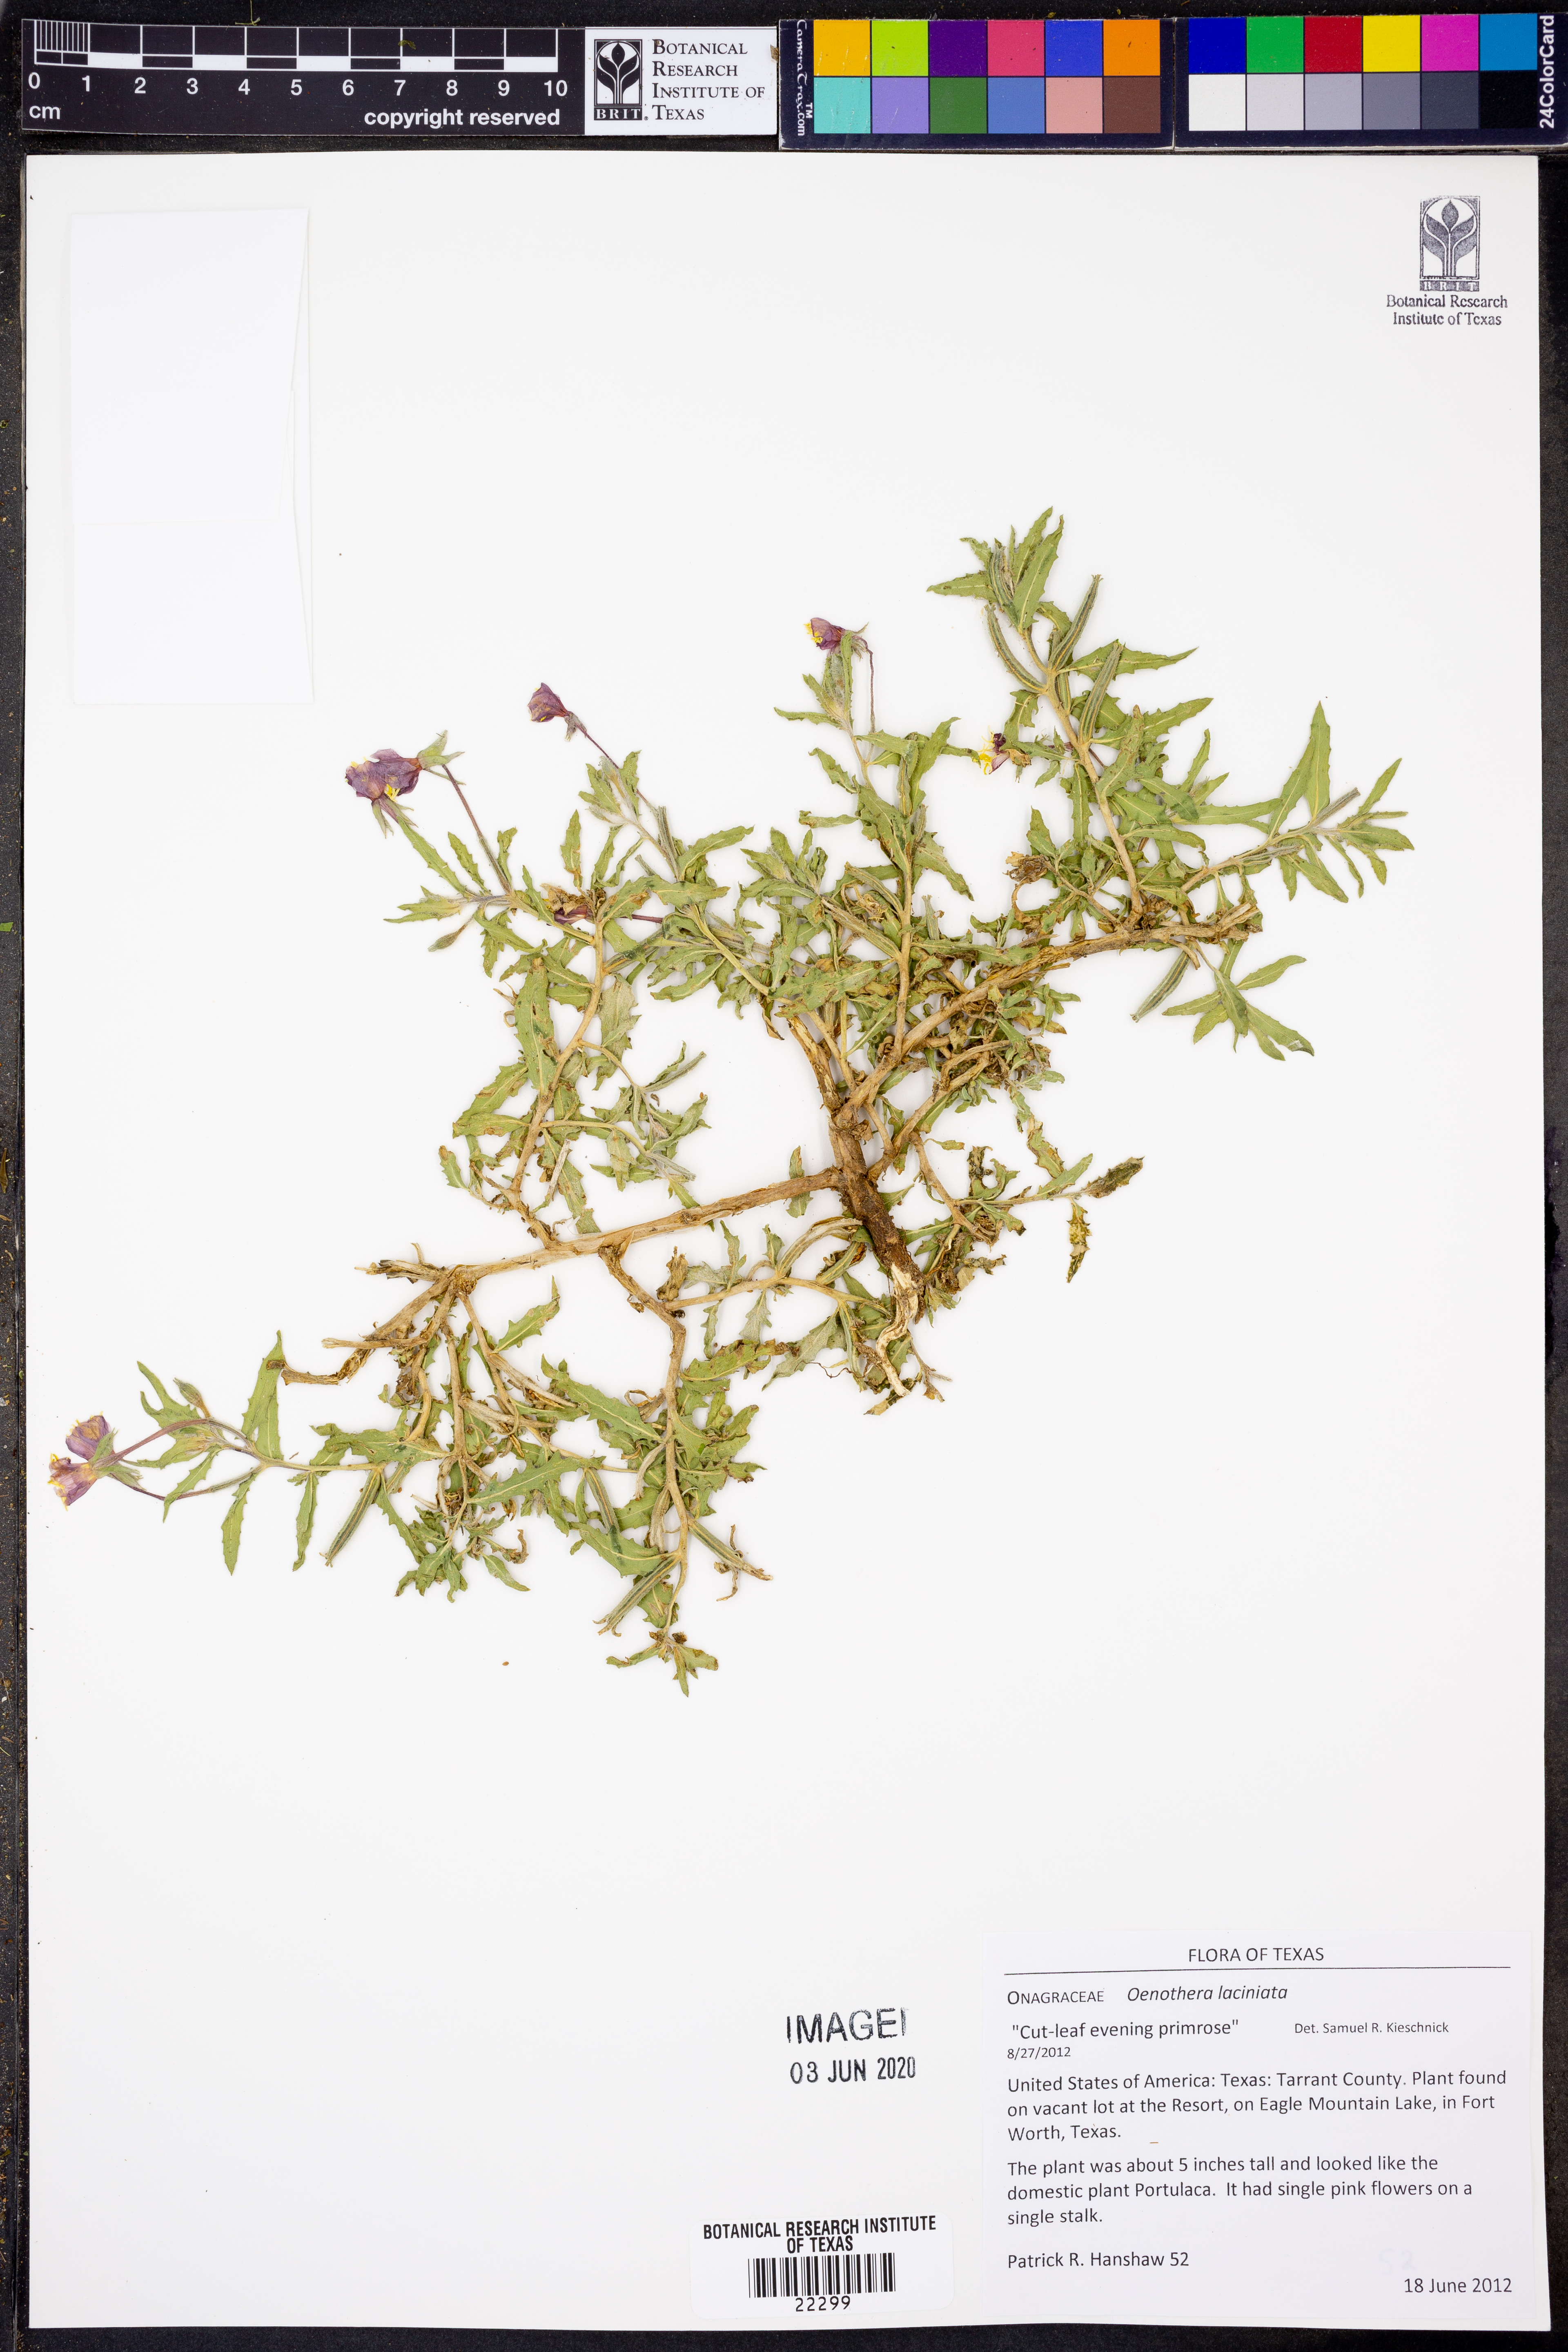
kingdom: Plantae
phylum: Tracheophyta
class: Magnoliopsida
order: Myrtales
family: Onagraceae
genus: Oenothera
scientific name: Oenothera laciniata
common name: Cut-leaved evening-primrose
